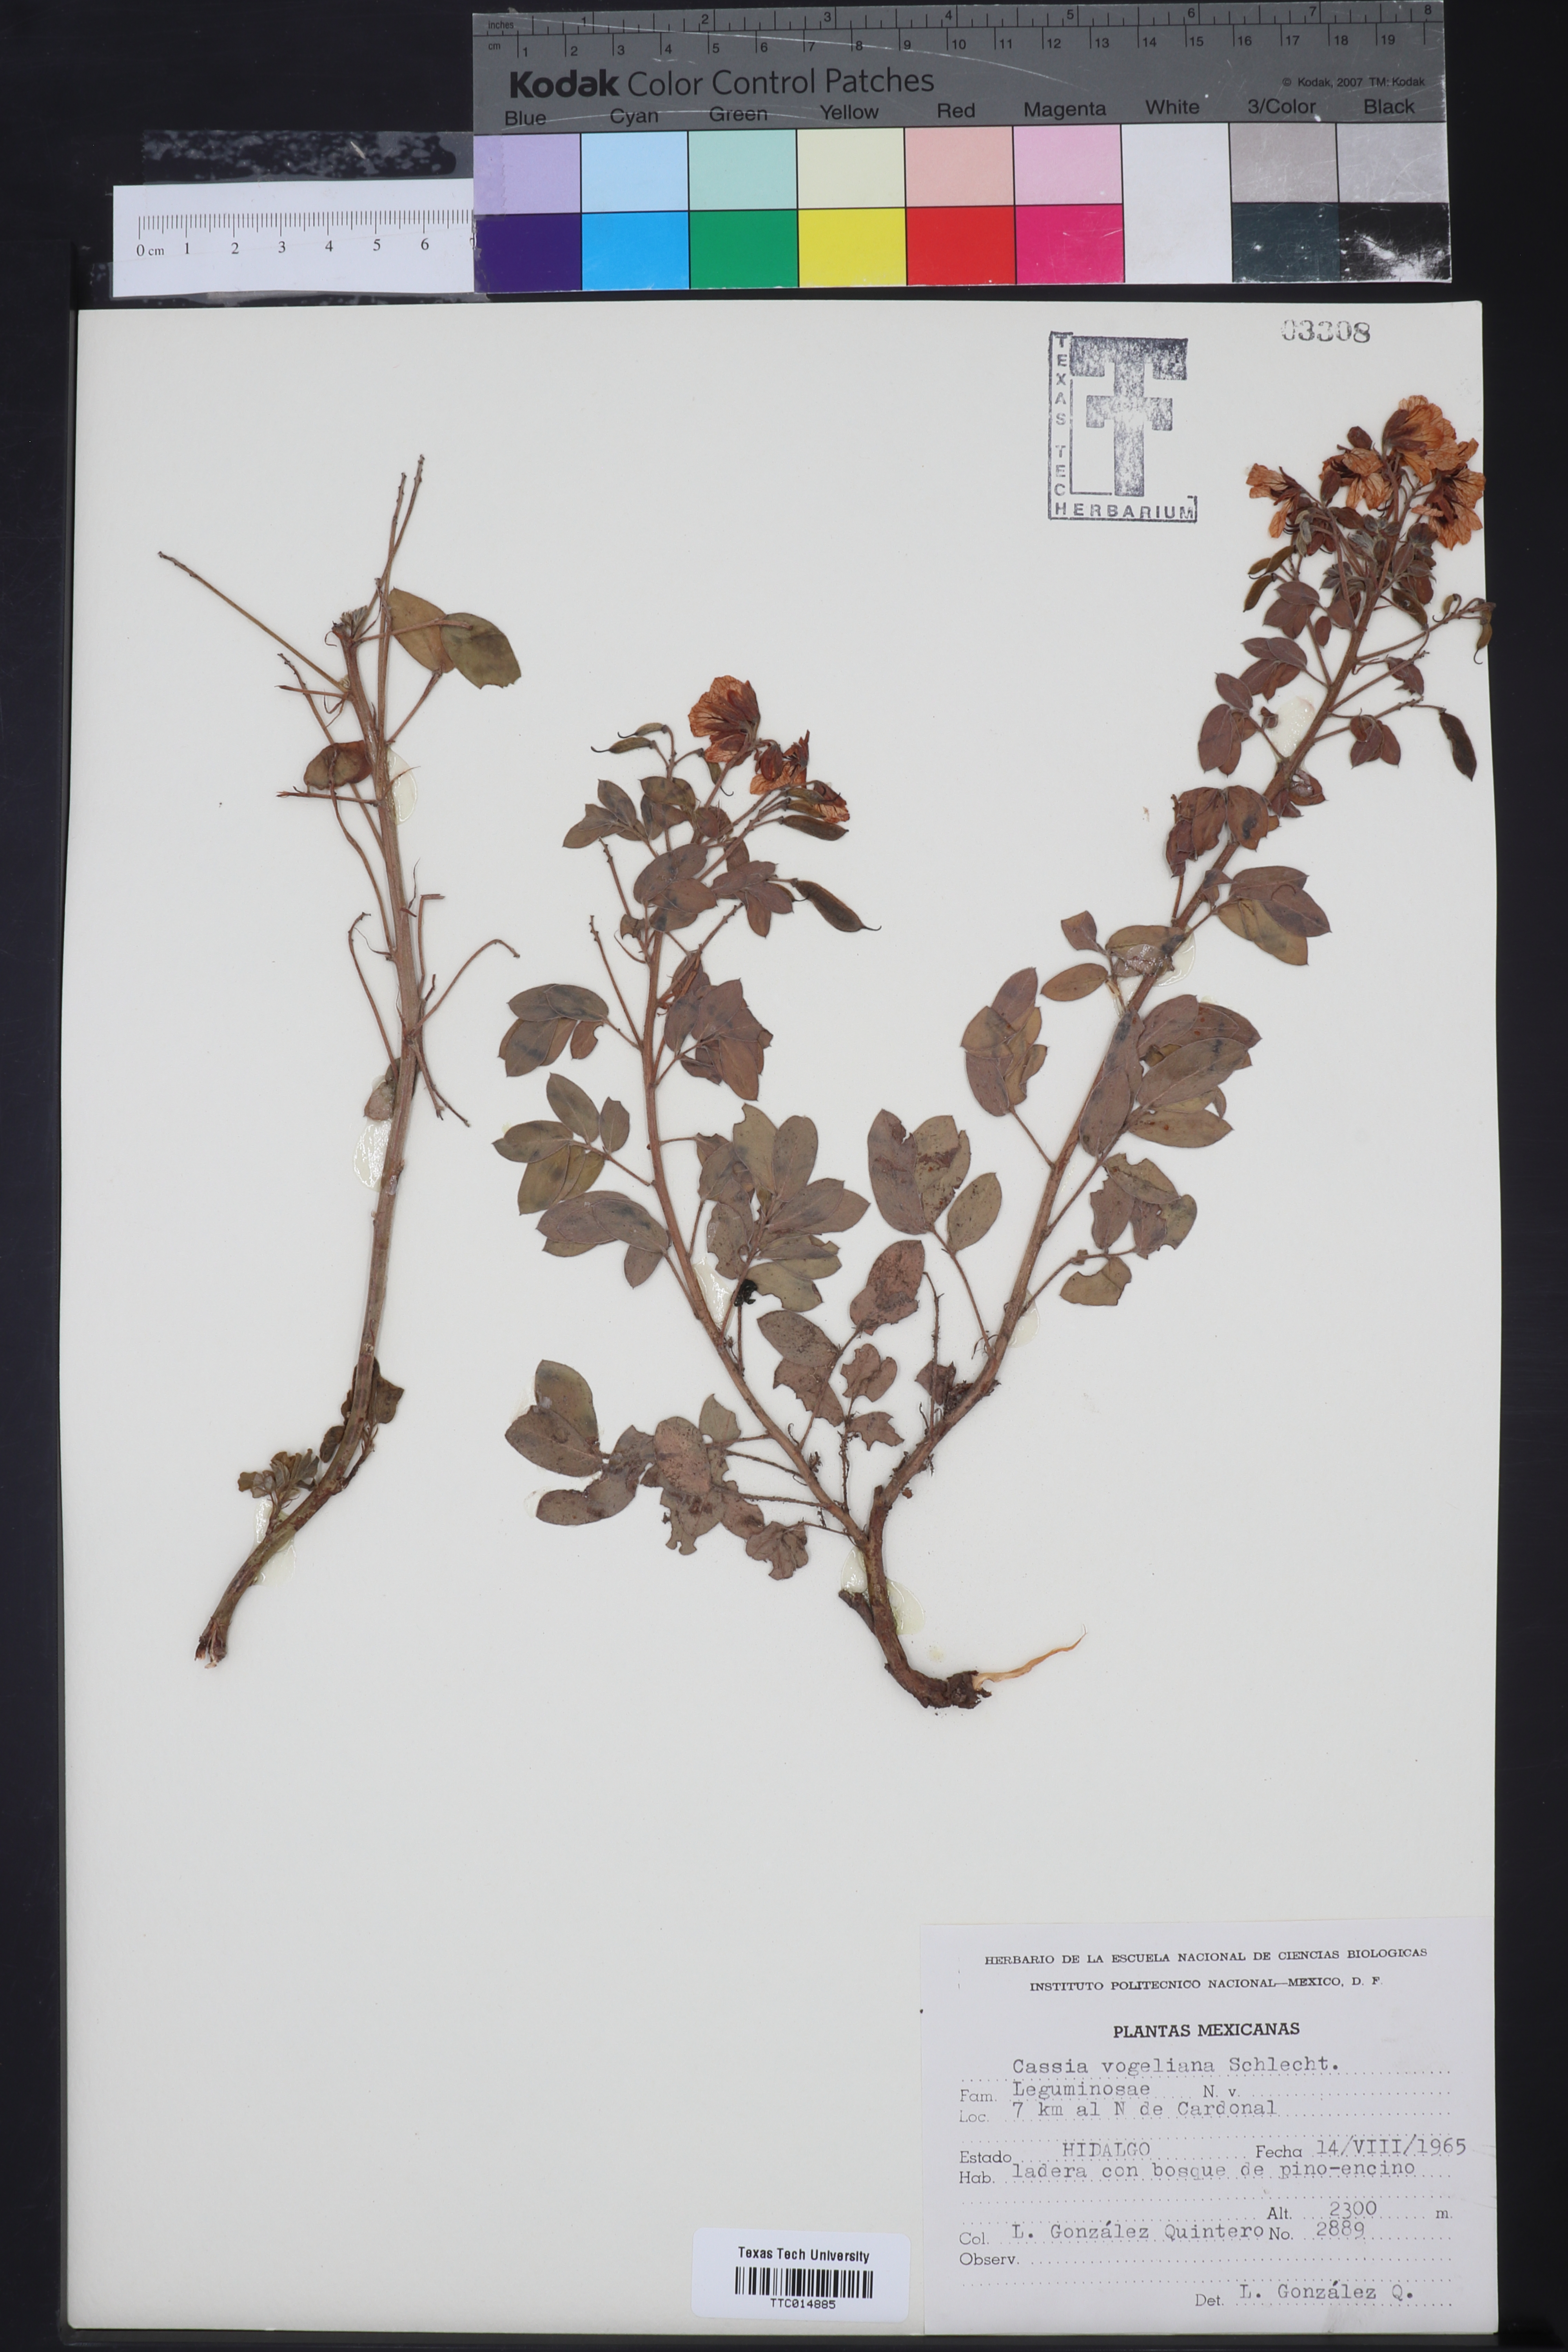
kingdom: Plantae
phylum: Tracheophyta
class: Magnoliopsida
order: Fabales
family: Fabaceae
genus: Senna
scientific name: Senna crotalarioides
